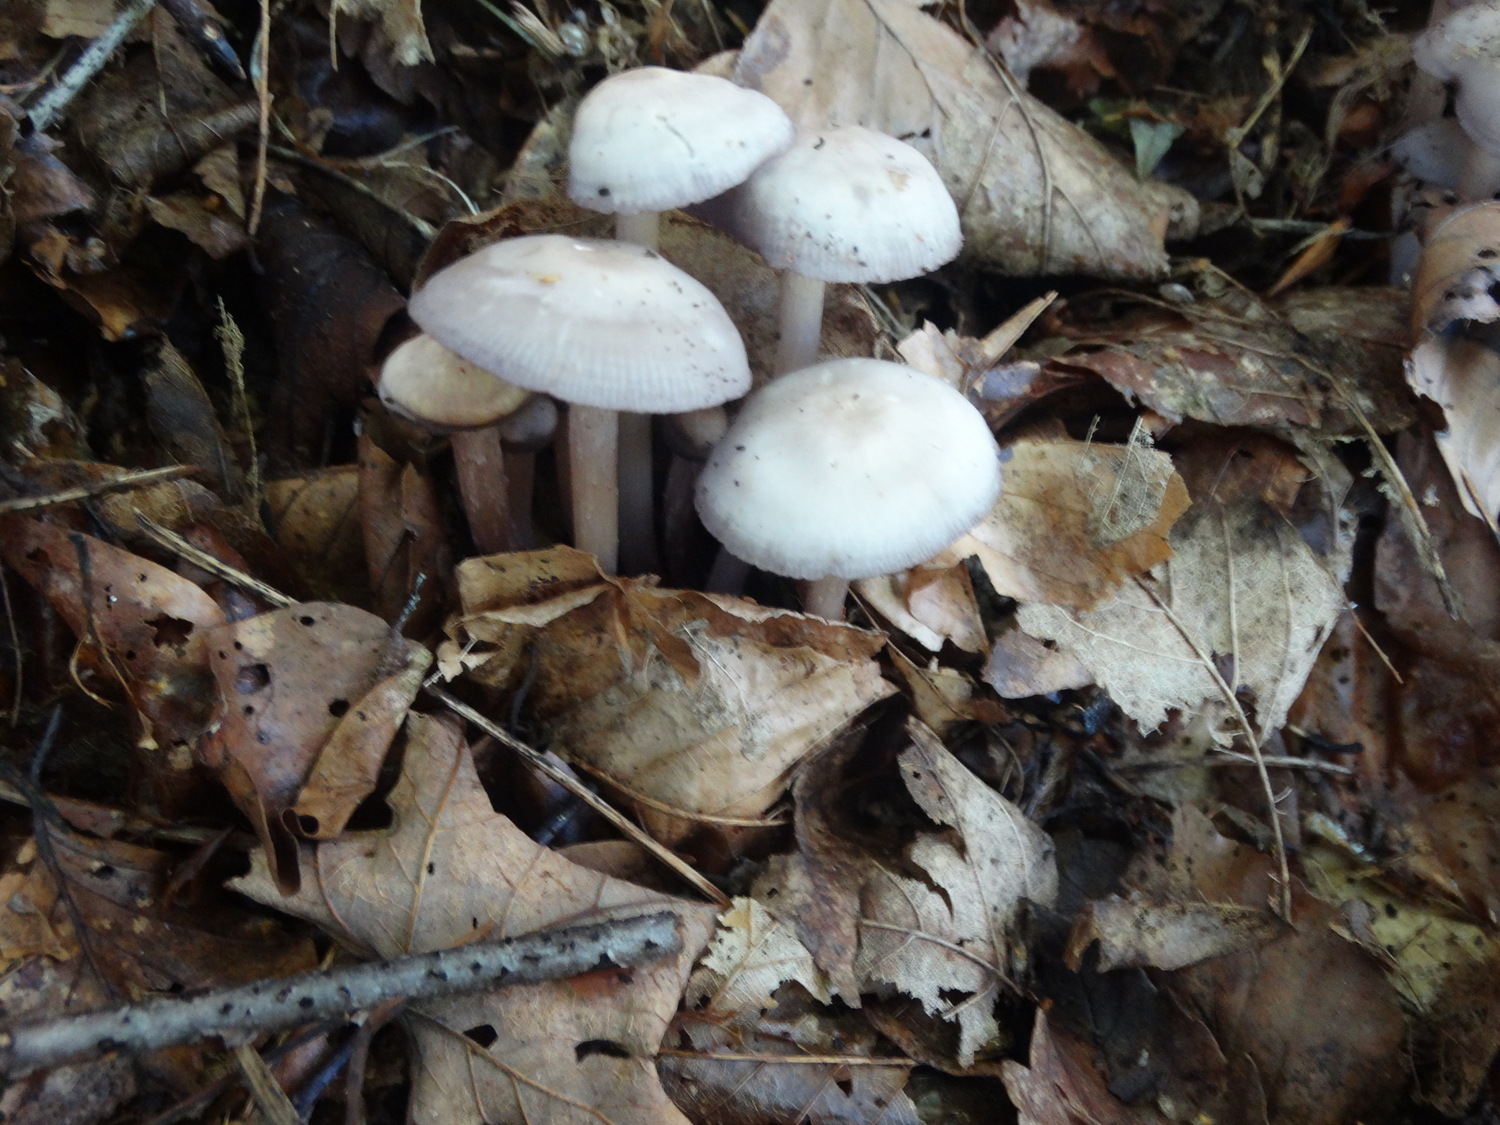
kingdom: Fungi
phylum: Basidiomycota
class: Agaricomycetes
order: Agaricales
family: Mycenaceae
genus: Mycena
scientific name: Mycena pelianthina
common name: mørkbladet huesvamp
